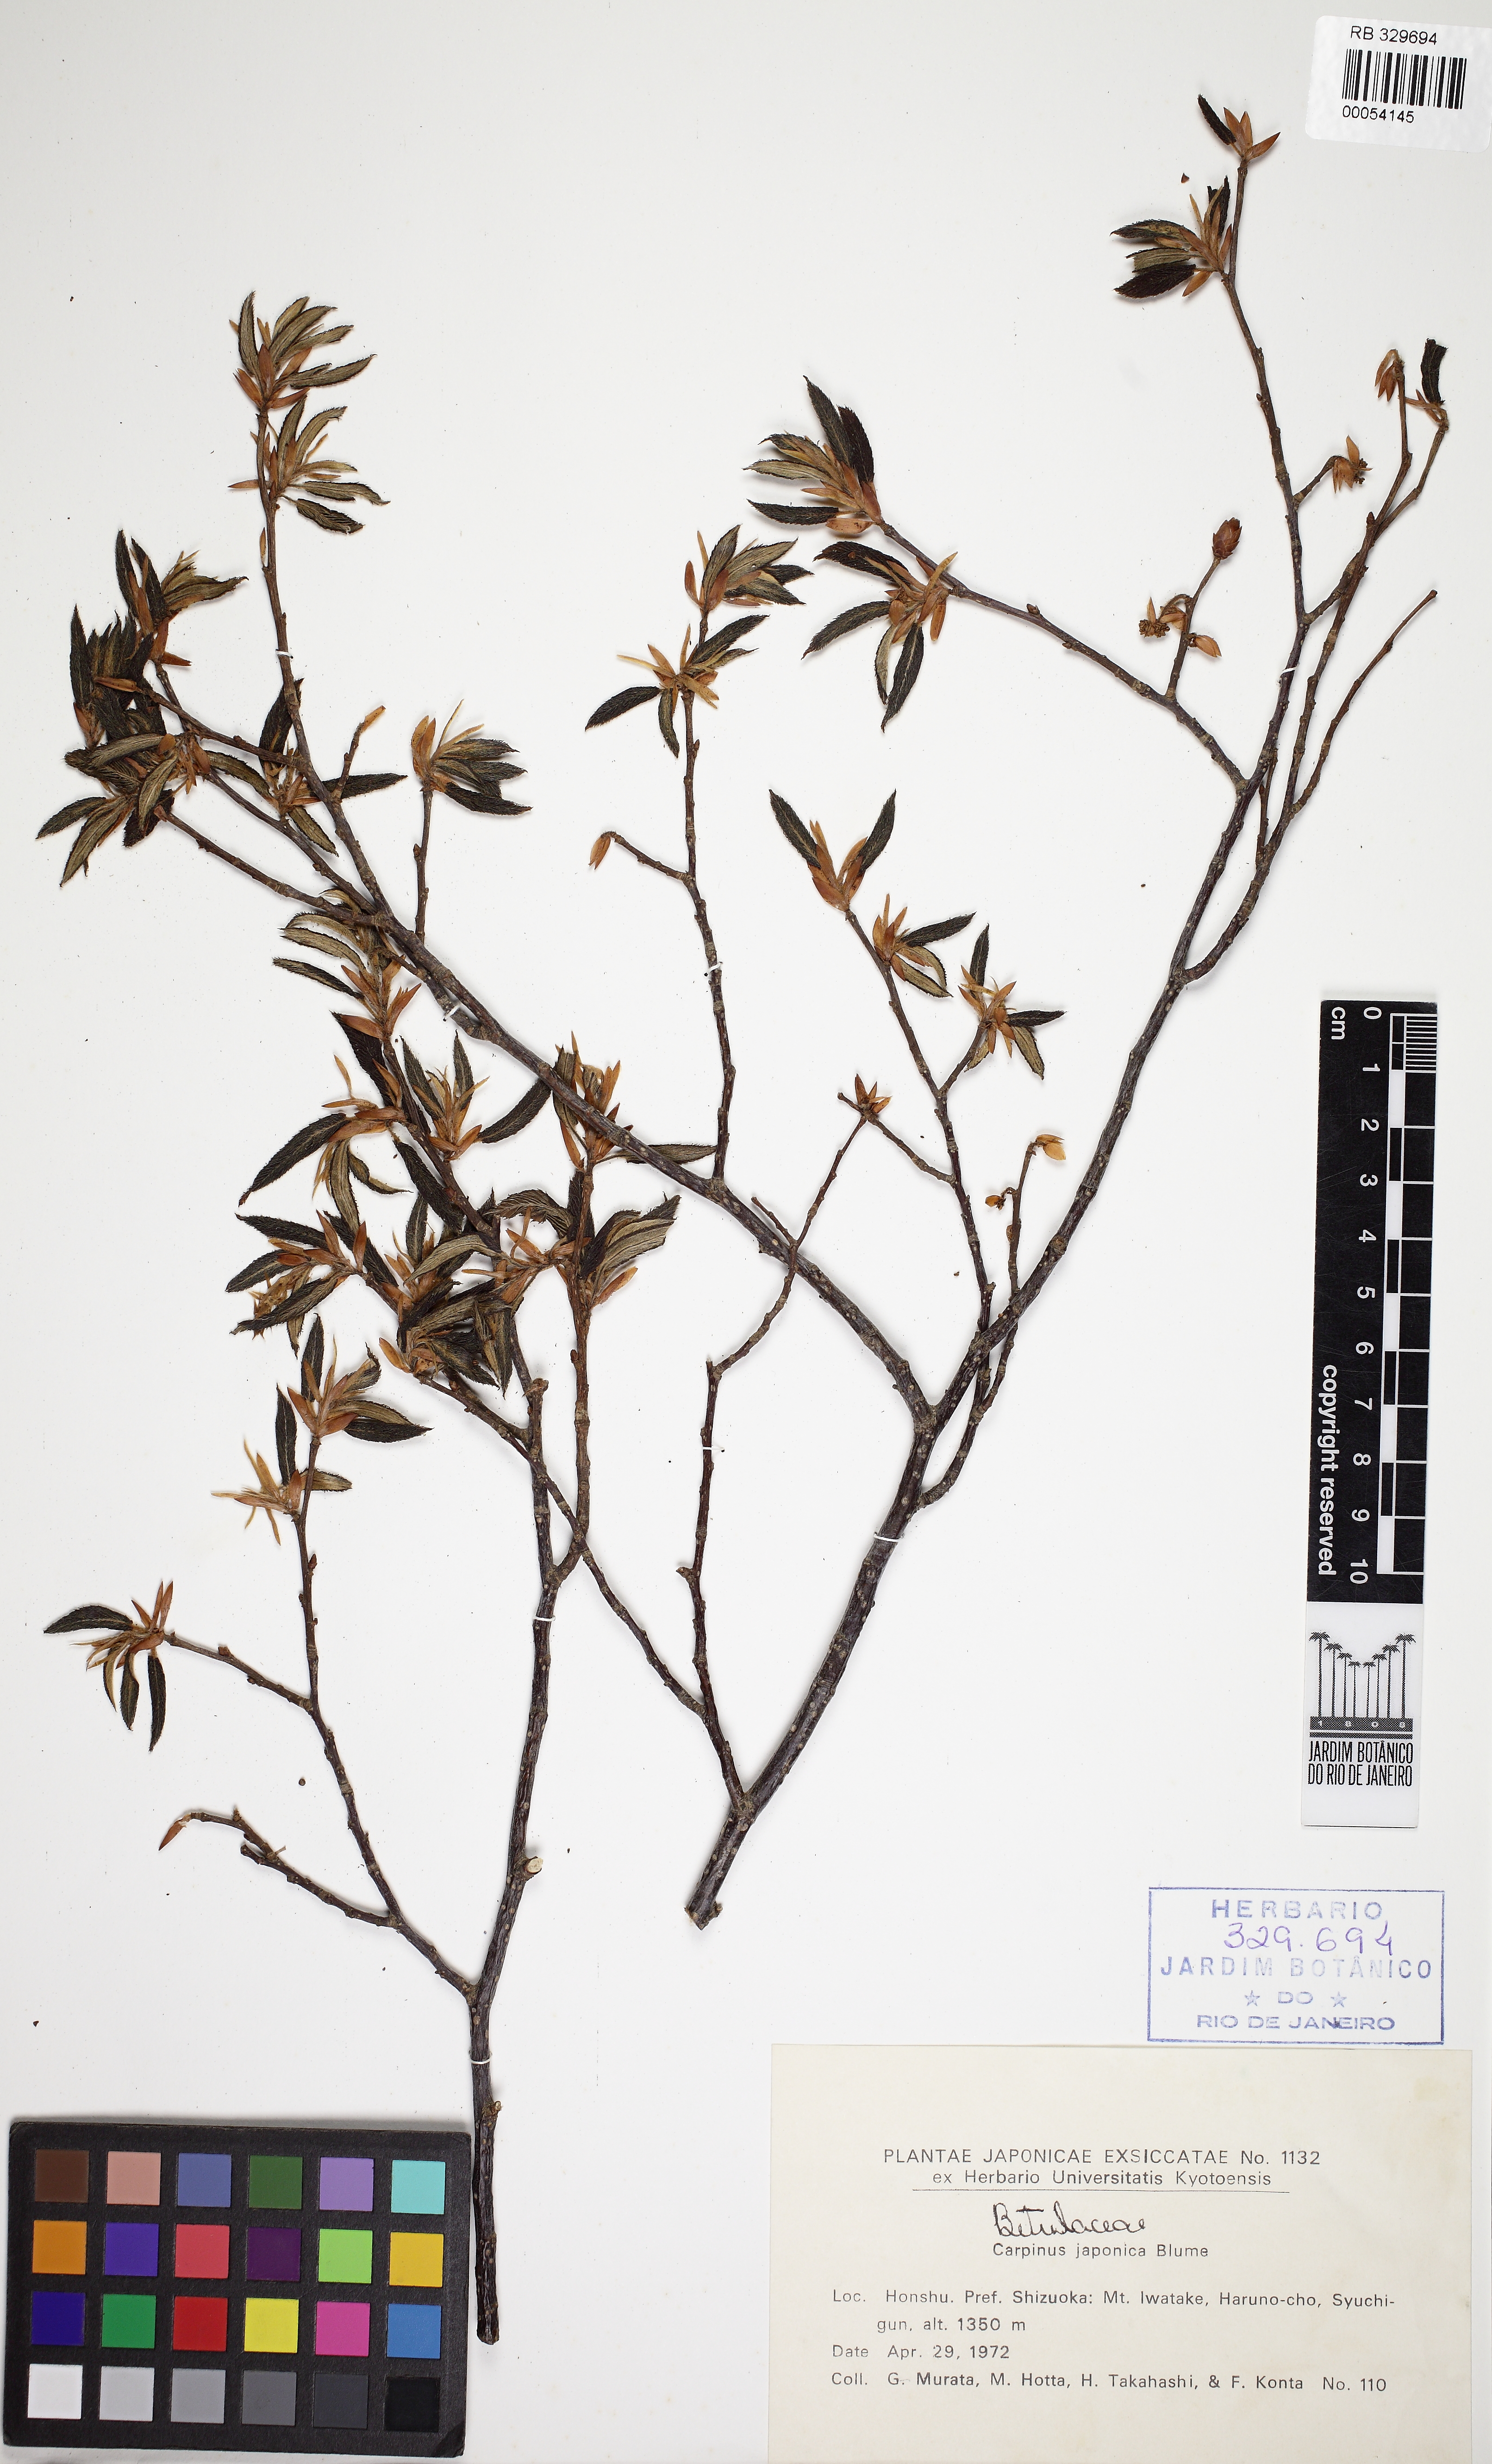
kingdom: Plantae
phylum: Tracheophyta
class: Magnoliopsida
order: Fagales
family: Betulaceae
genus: Carpinus
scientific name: Carpinus japonica
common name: Japanese hornbeam
